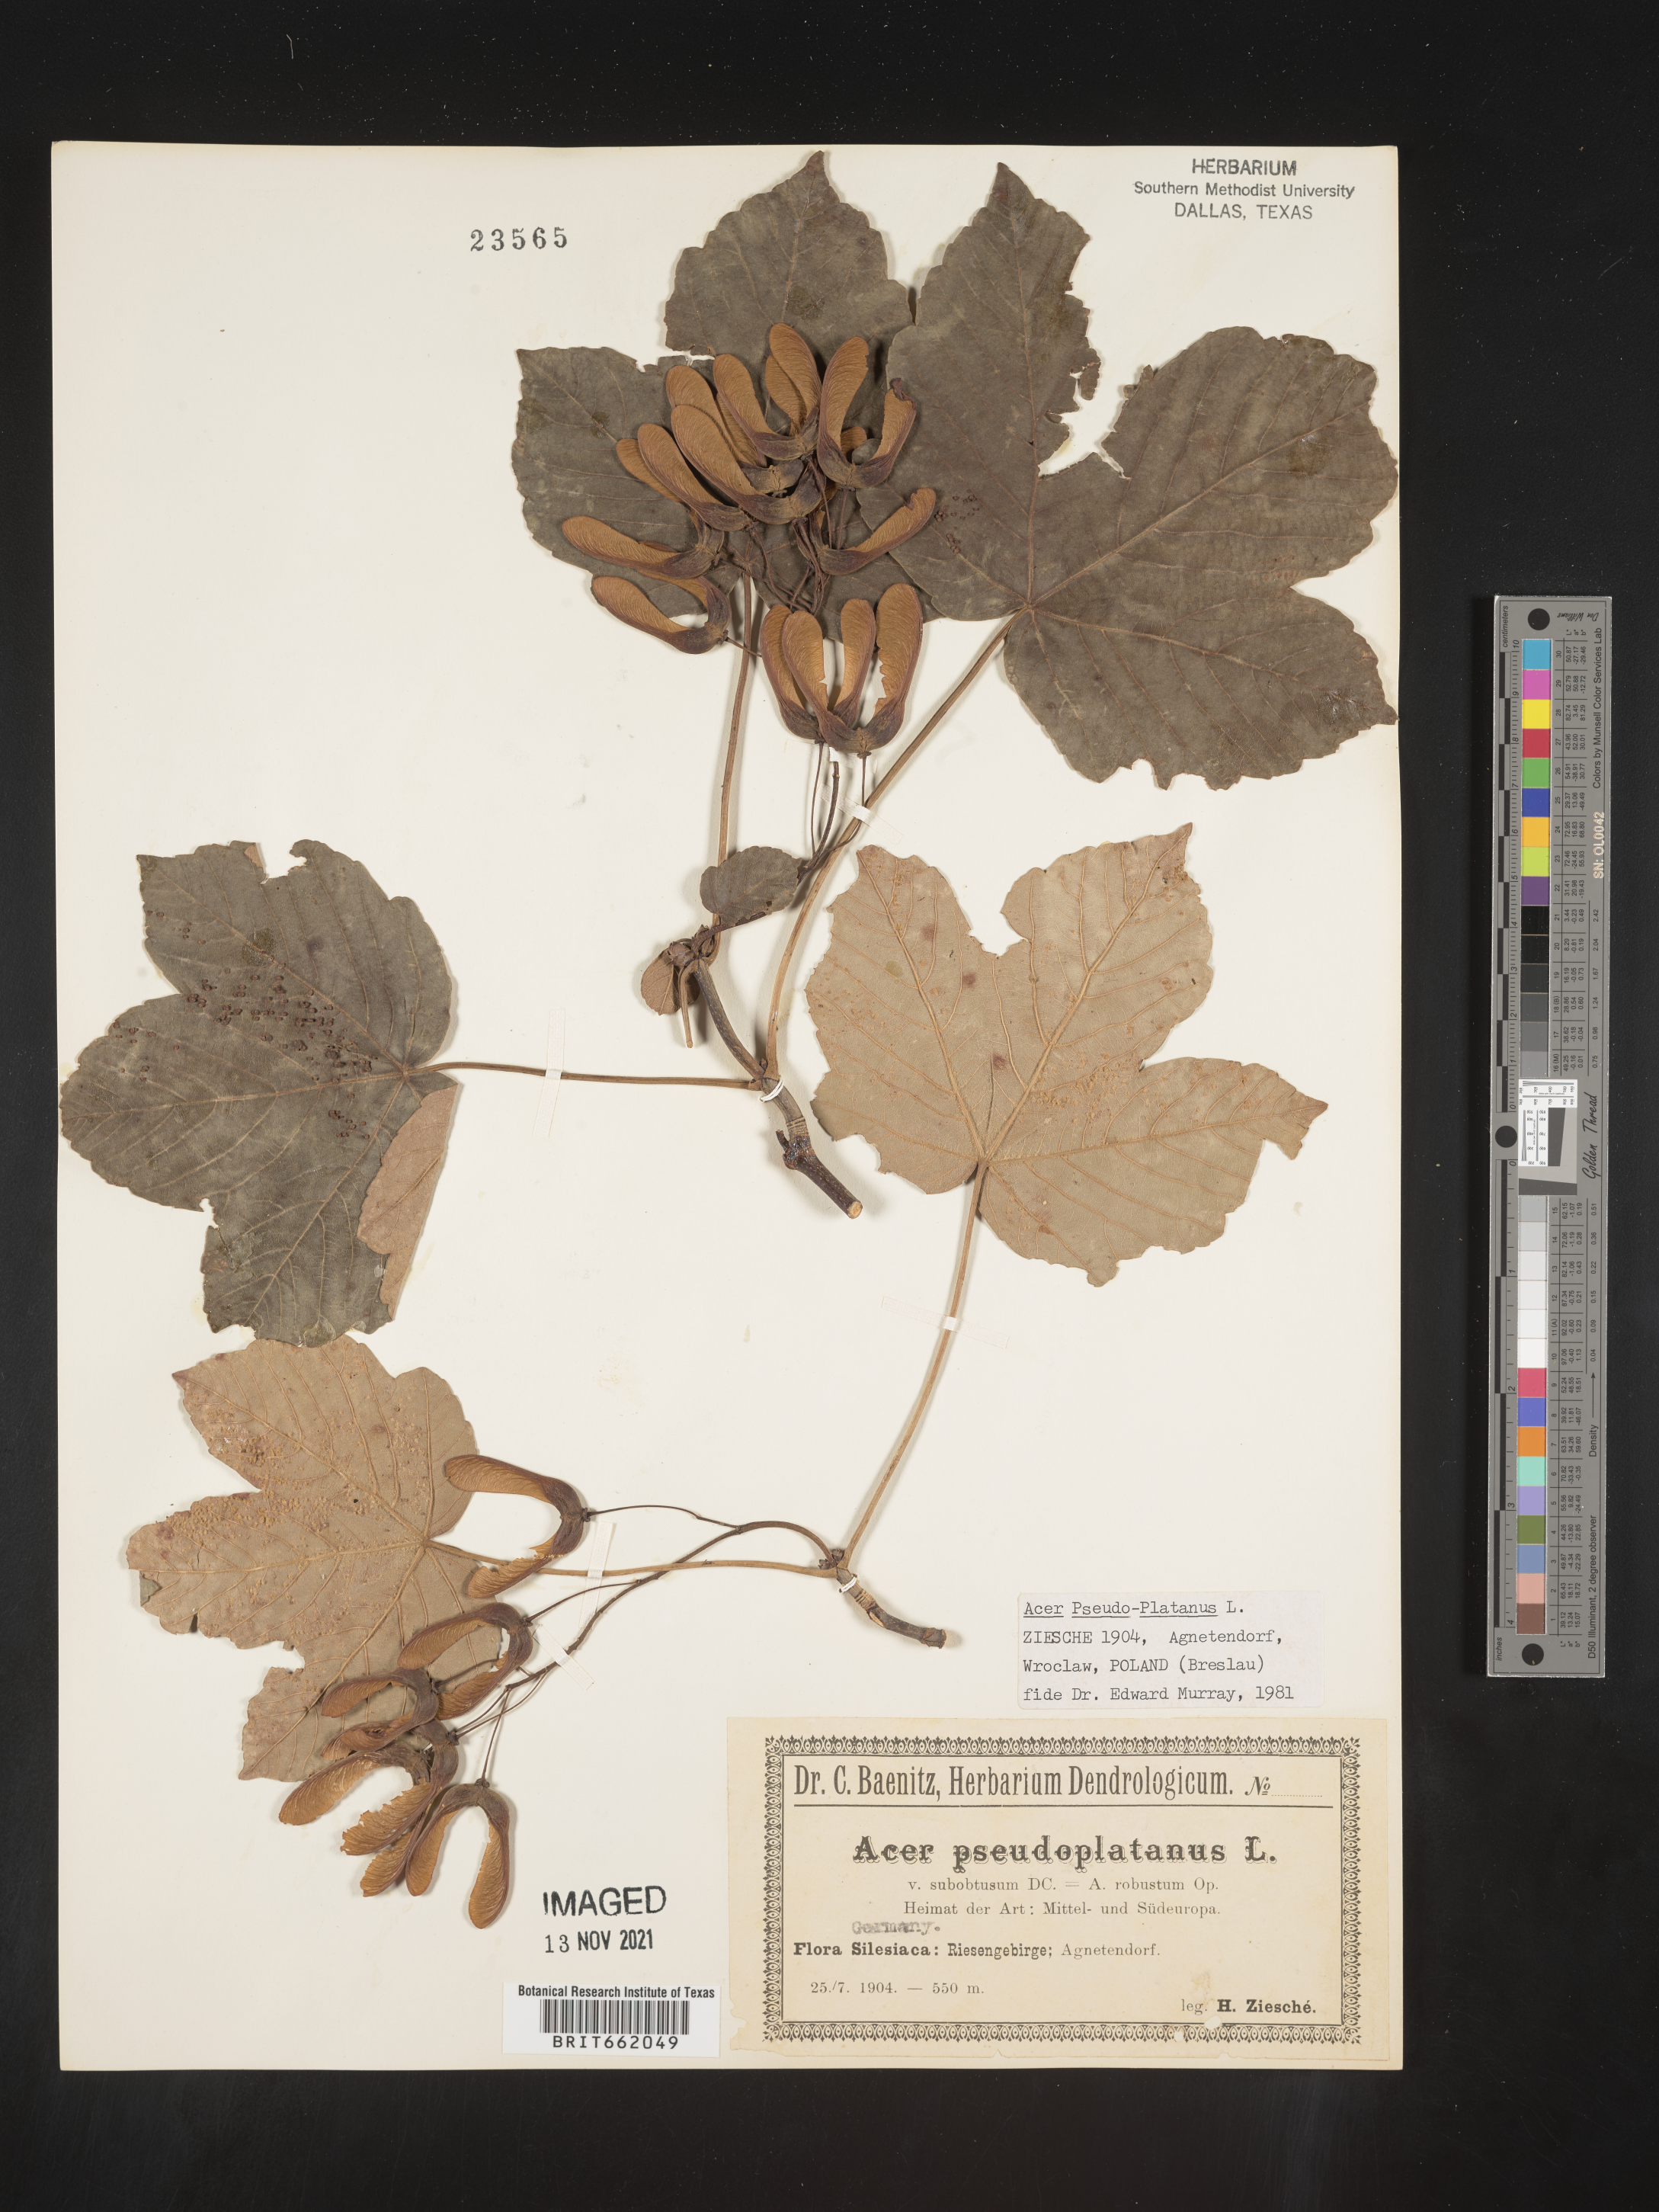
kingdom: Plantae
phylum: Tracheophyta
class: Magnoliopsida
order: Sapindales
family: Sapindaceae
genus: Acer
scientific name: Acer
